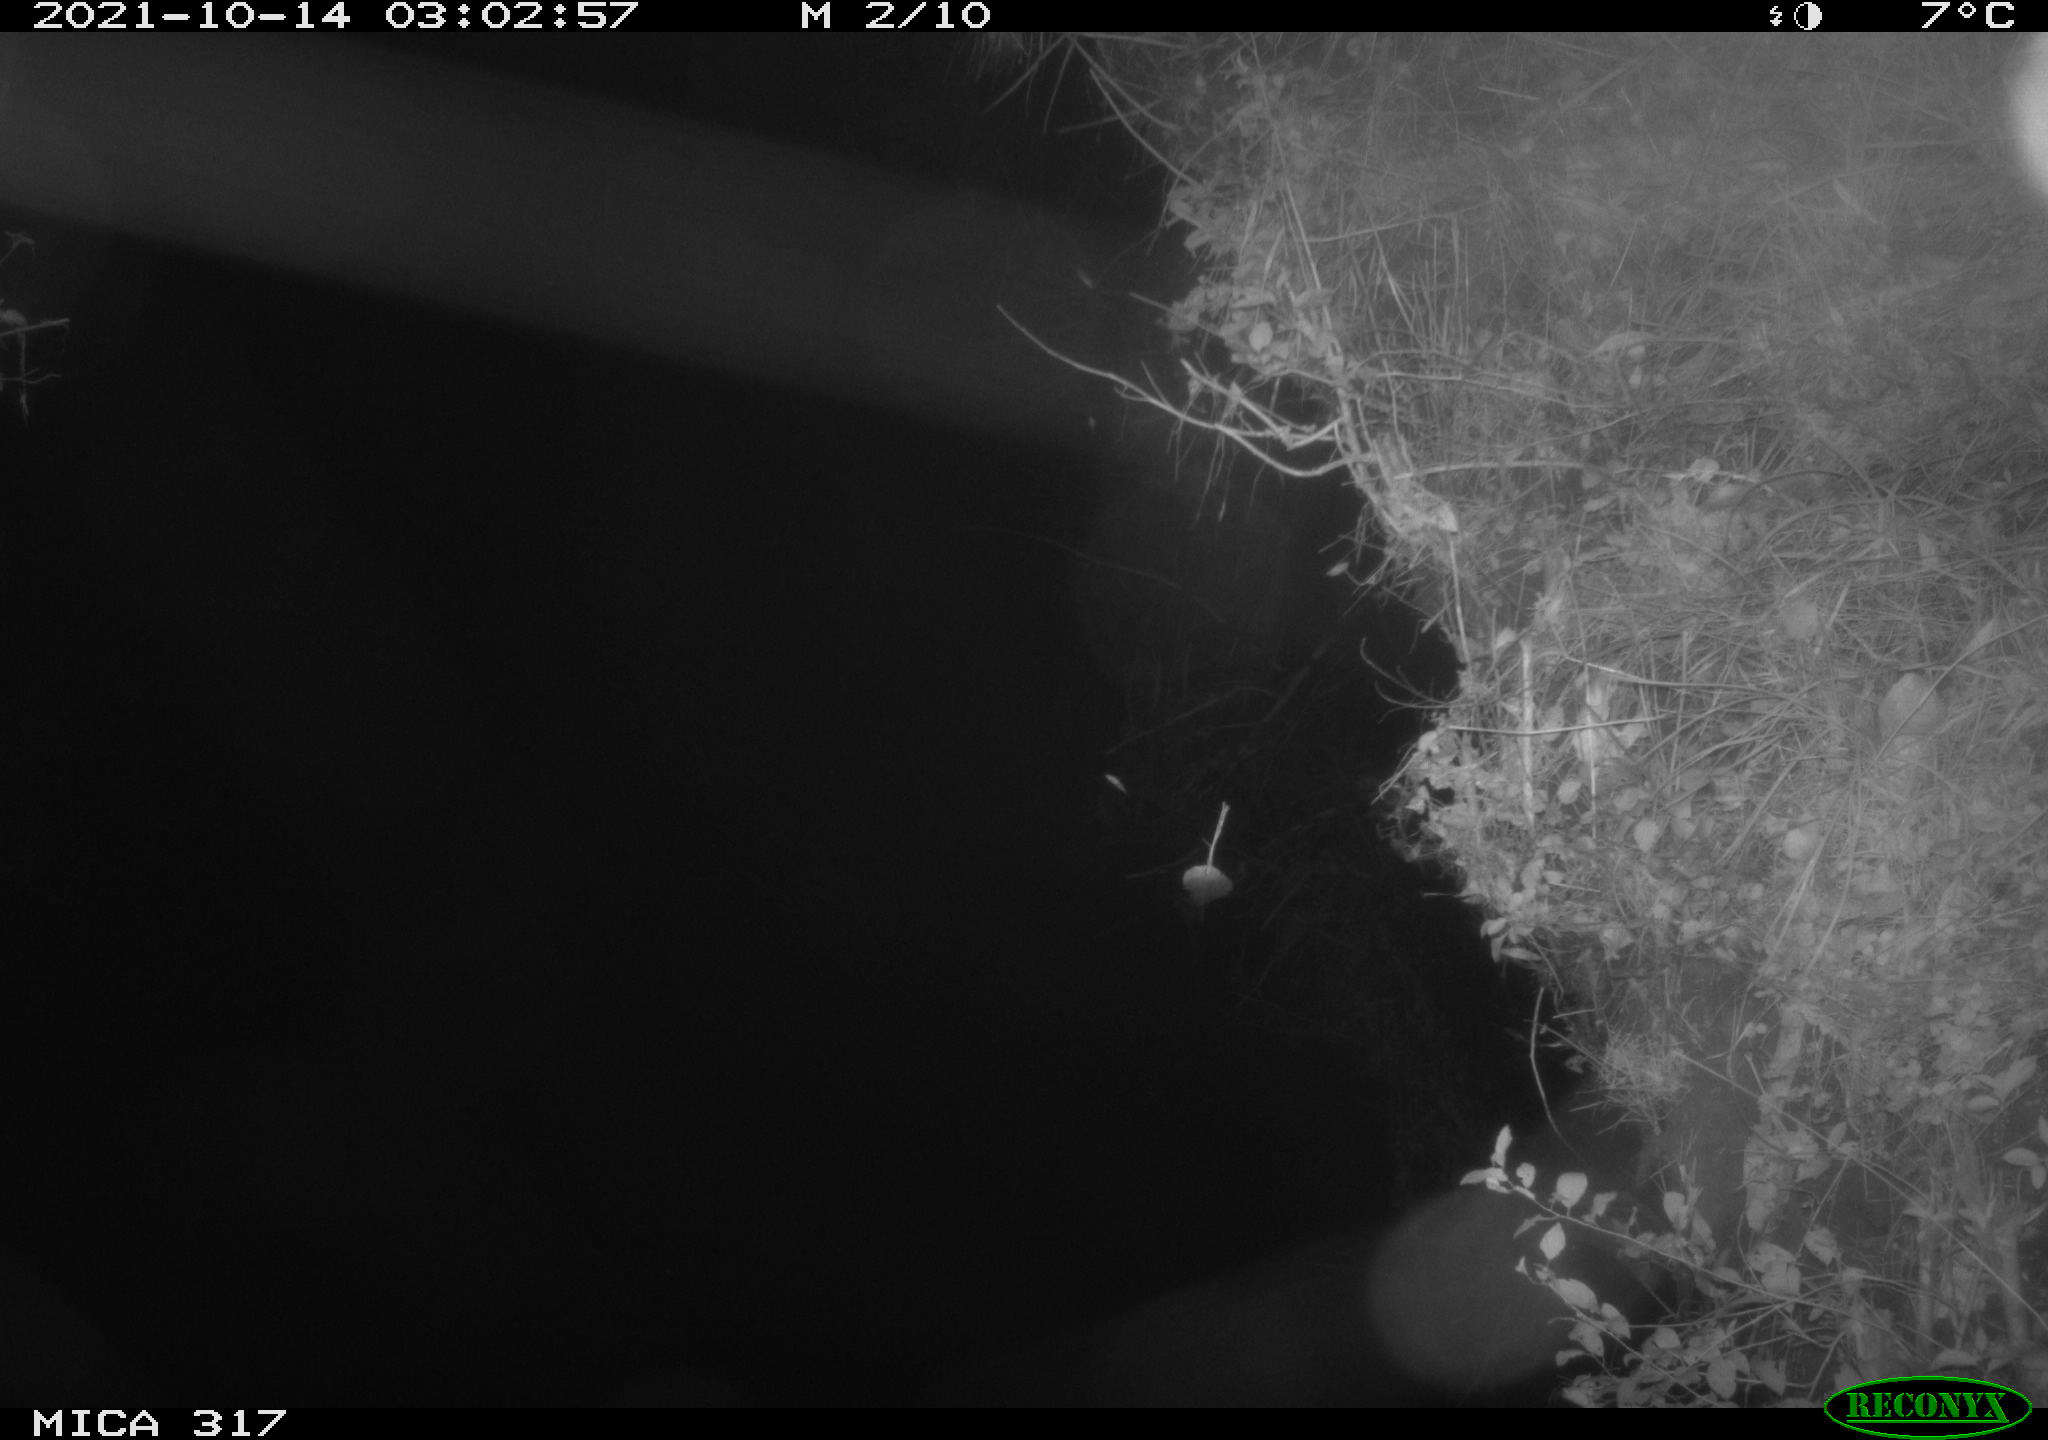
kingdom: Animalia
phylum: Chordata
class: Mammalia
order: Rodentia
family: Muridae
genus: Rattus
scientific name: Rattus norvegicus
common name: Brown rat
